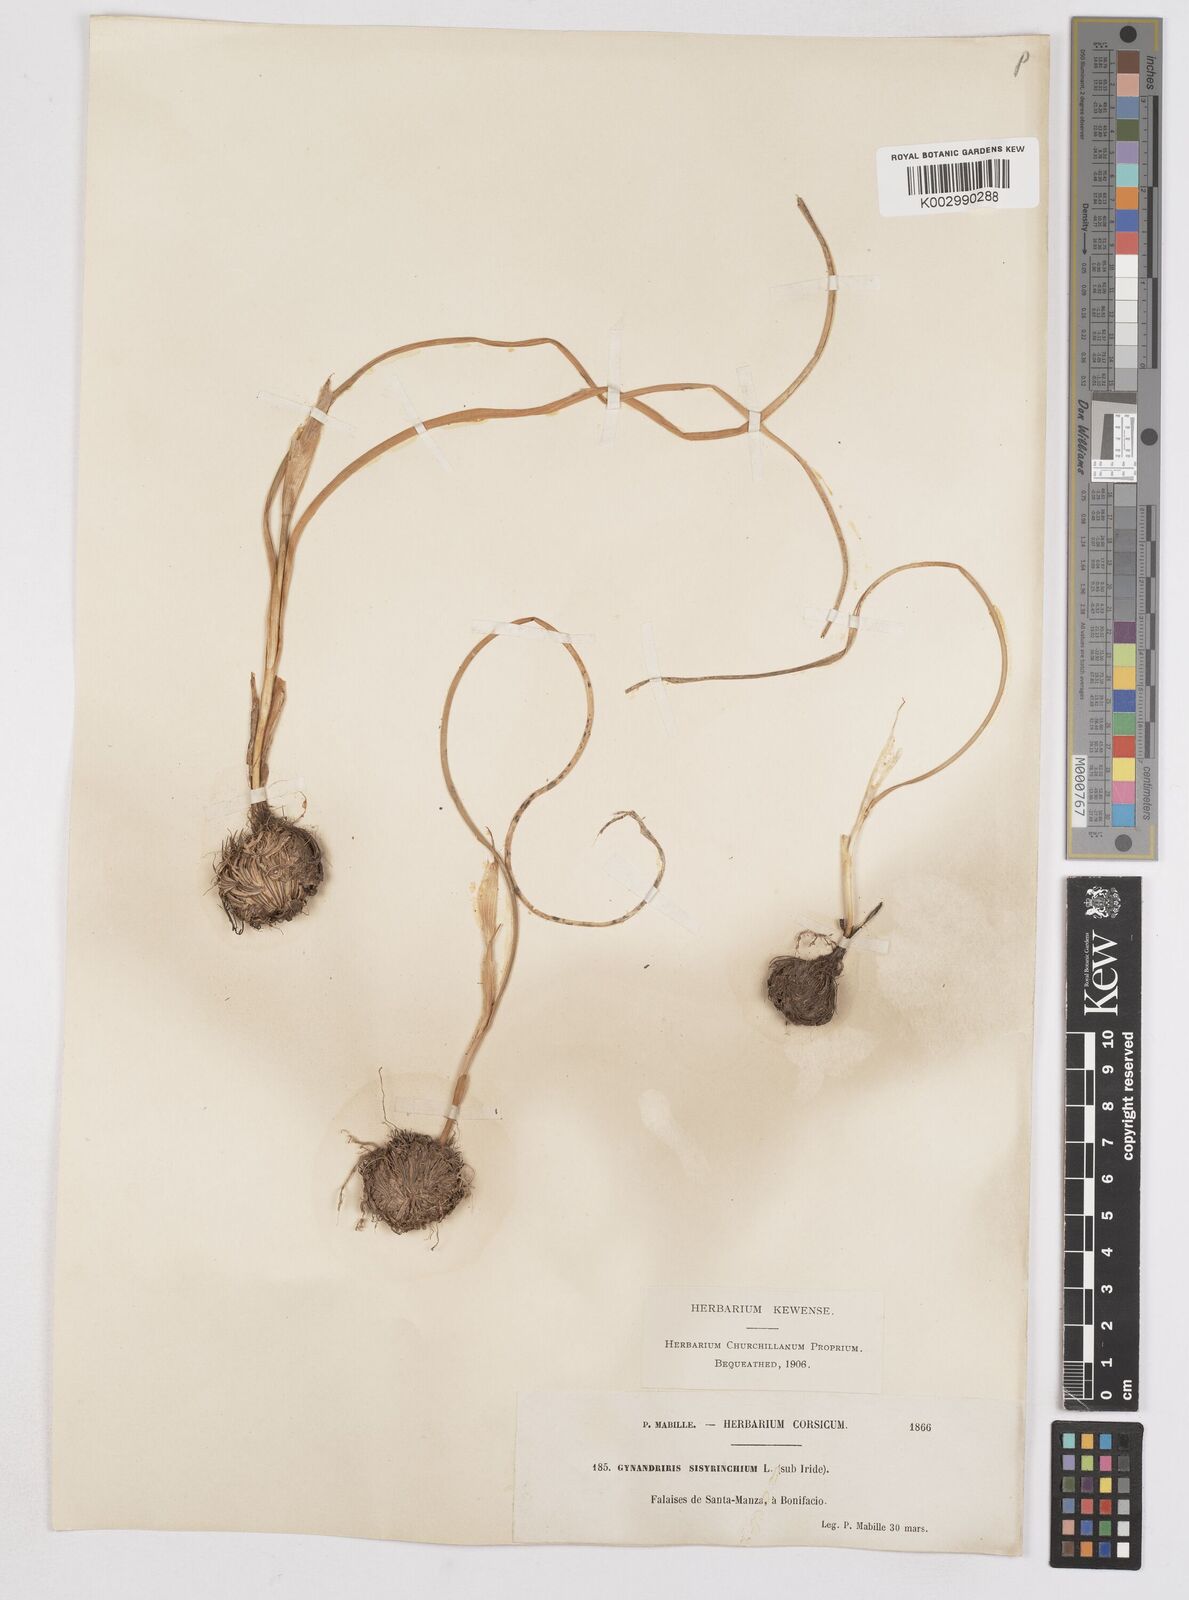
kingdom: Plantae
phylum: Tracheophyta
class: Liliopsida
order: Asparagales
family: Iridaceae
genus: Moraea
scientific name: Moraea sisyrinchium
